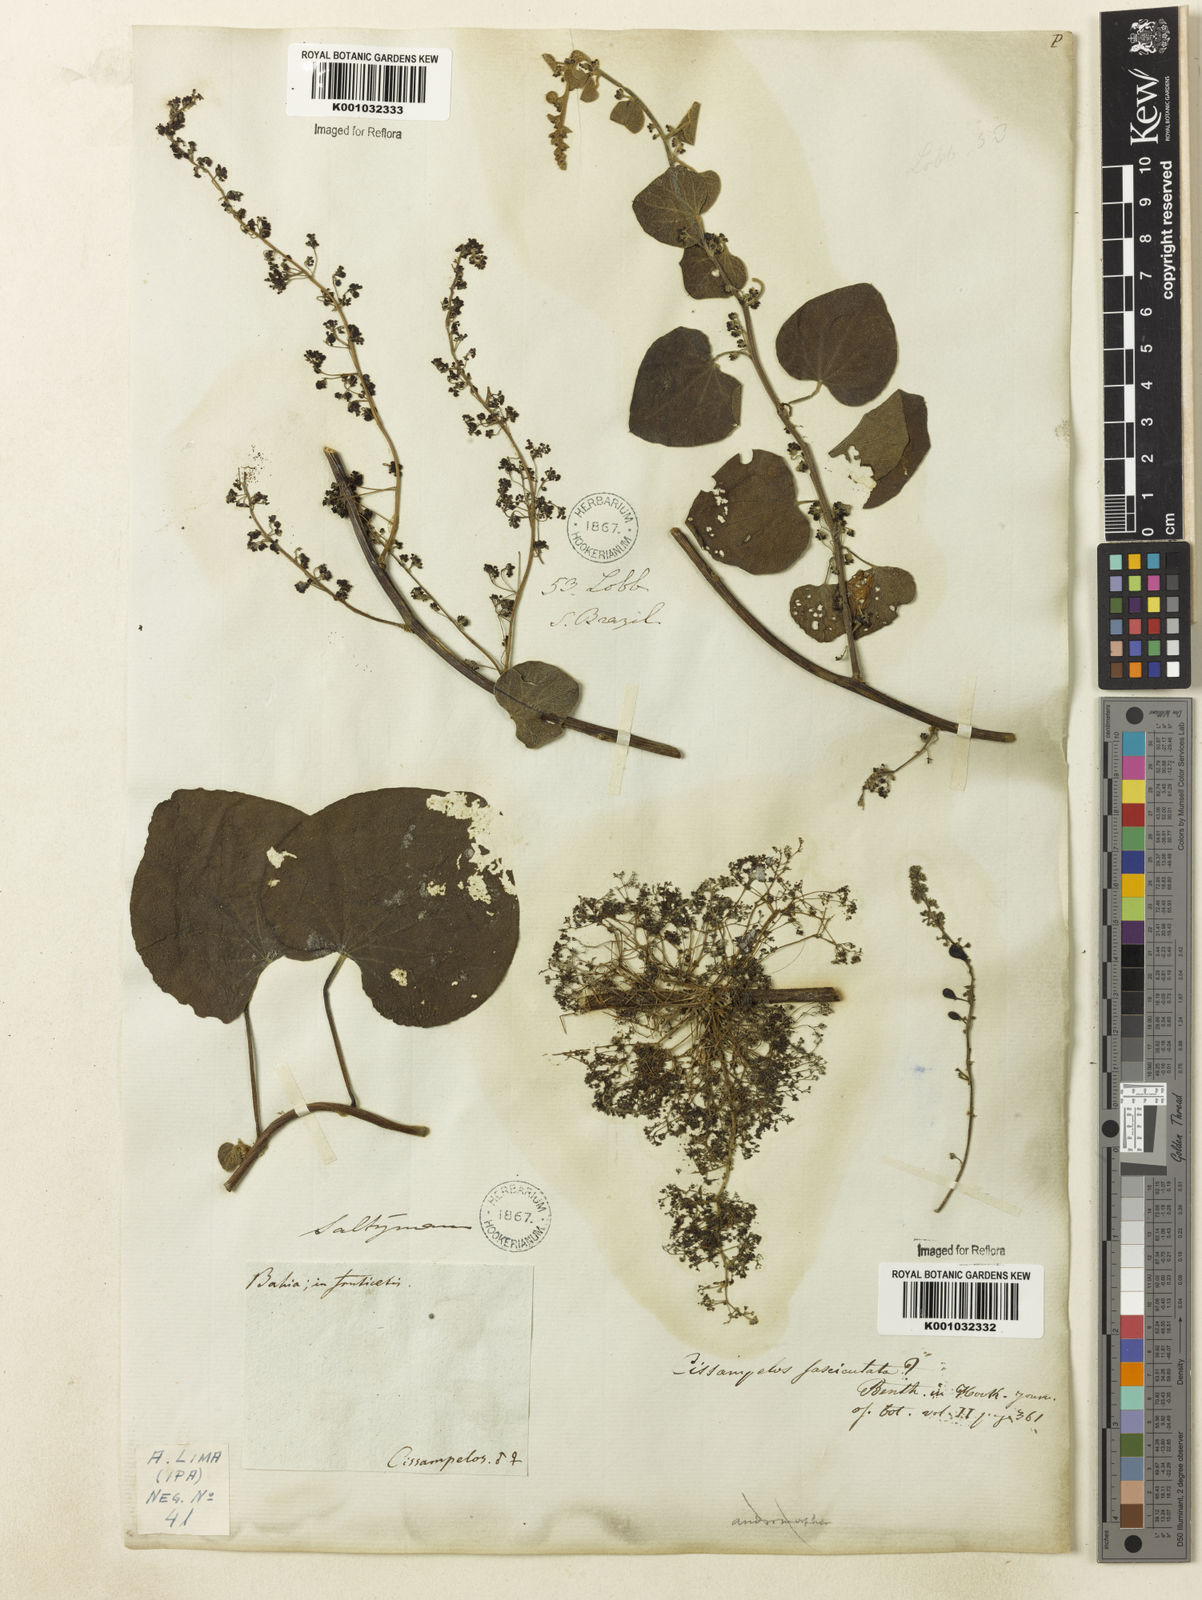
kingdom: Plantae
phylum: Tracheophyta
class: Magnoliopsida
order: Ranunculales
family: Menispermaceae
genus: Cissampelos
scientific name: Cissampelos fasciculata
